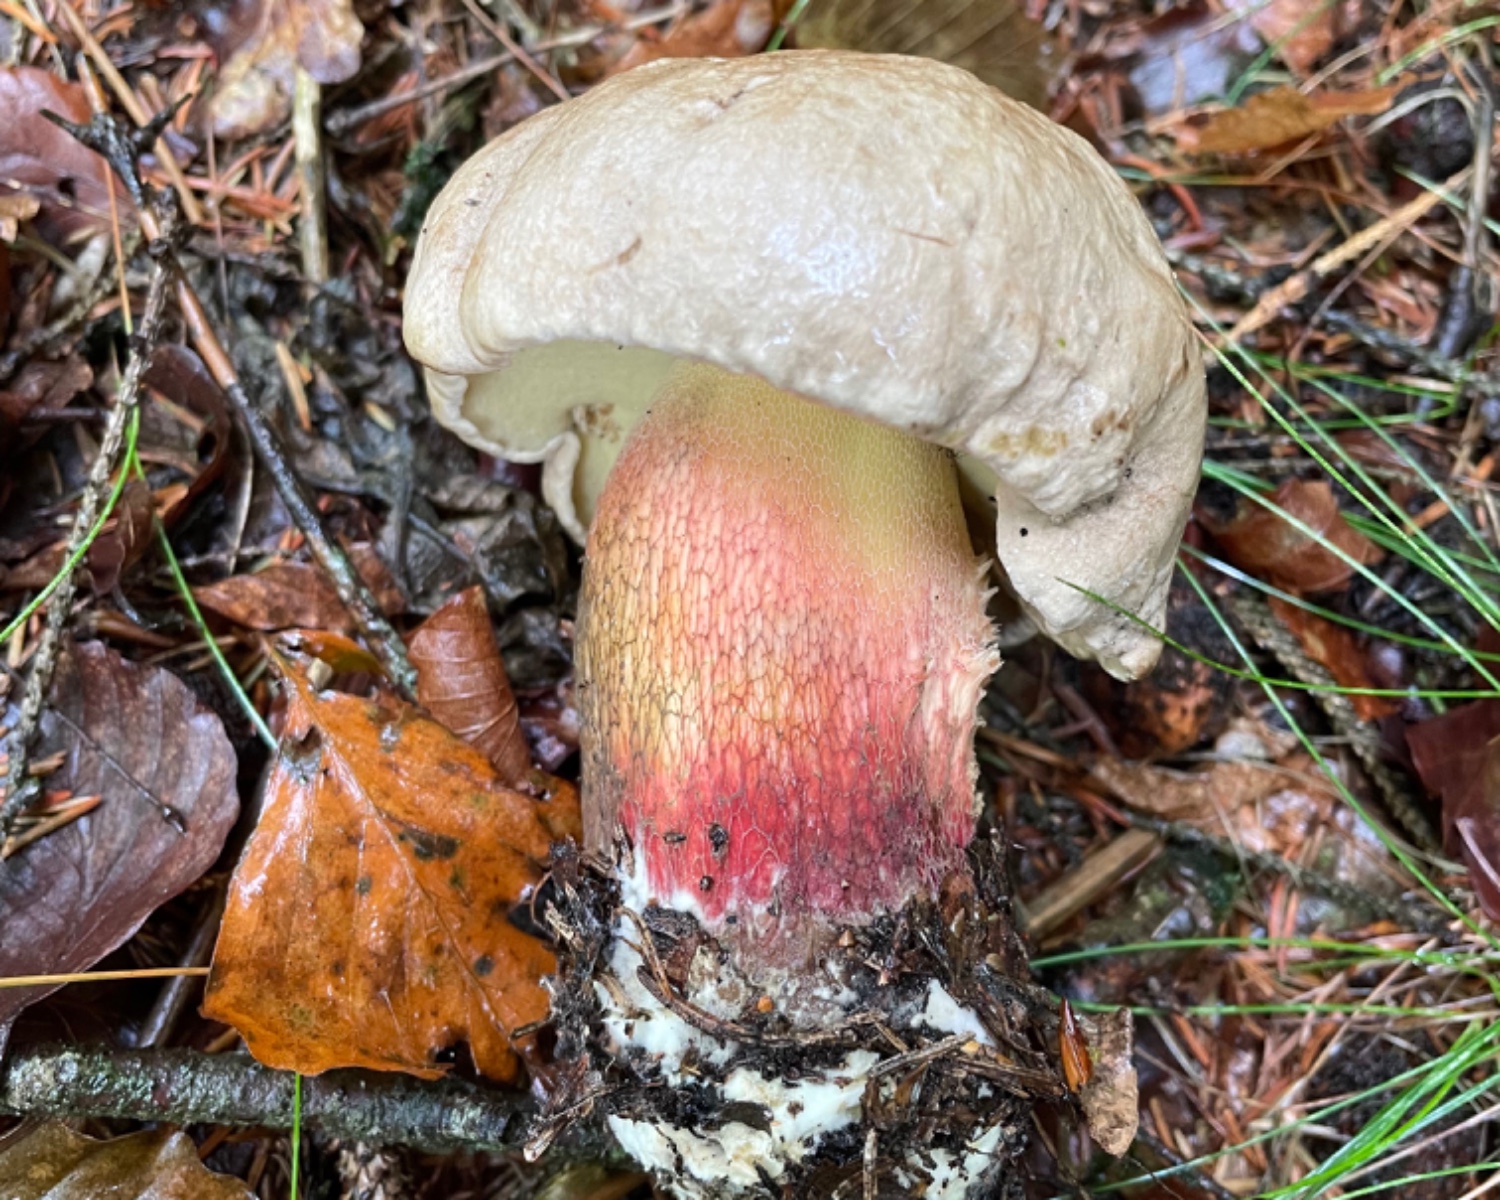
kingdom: Fungi
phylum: Basidiomycota
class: Agaricomycetes
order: Boletales
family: Boletaceae
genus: Caloboletus
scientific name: Caloboletus calopus
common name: skønfodet rørhat
